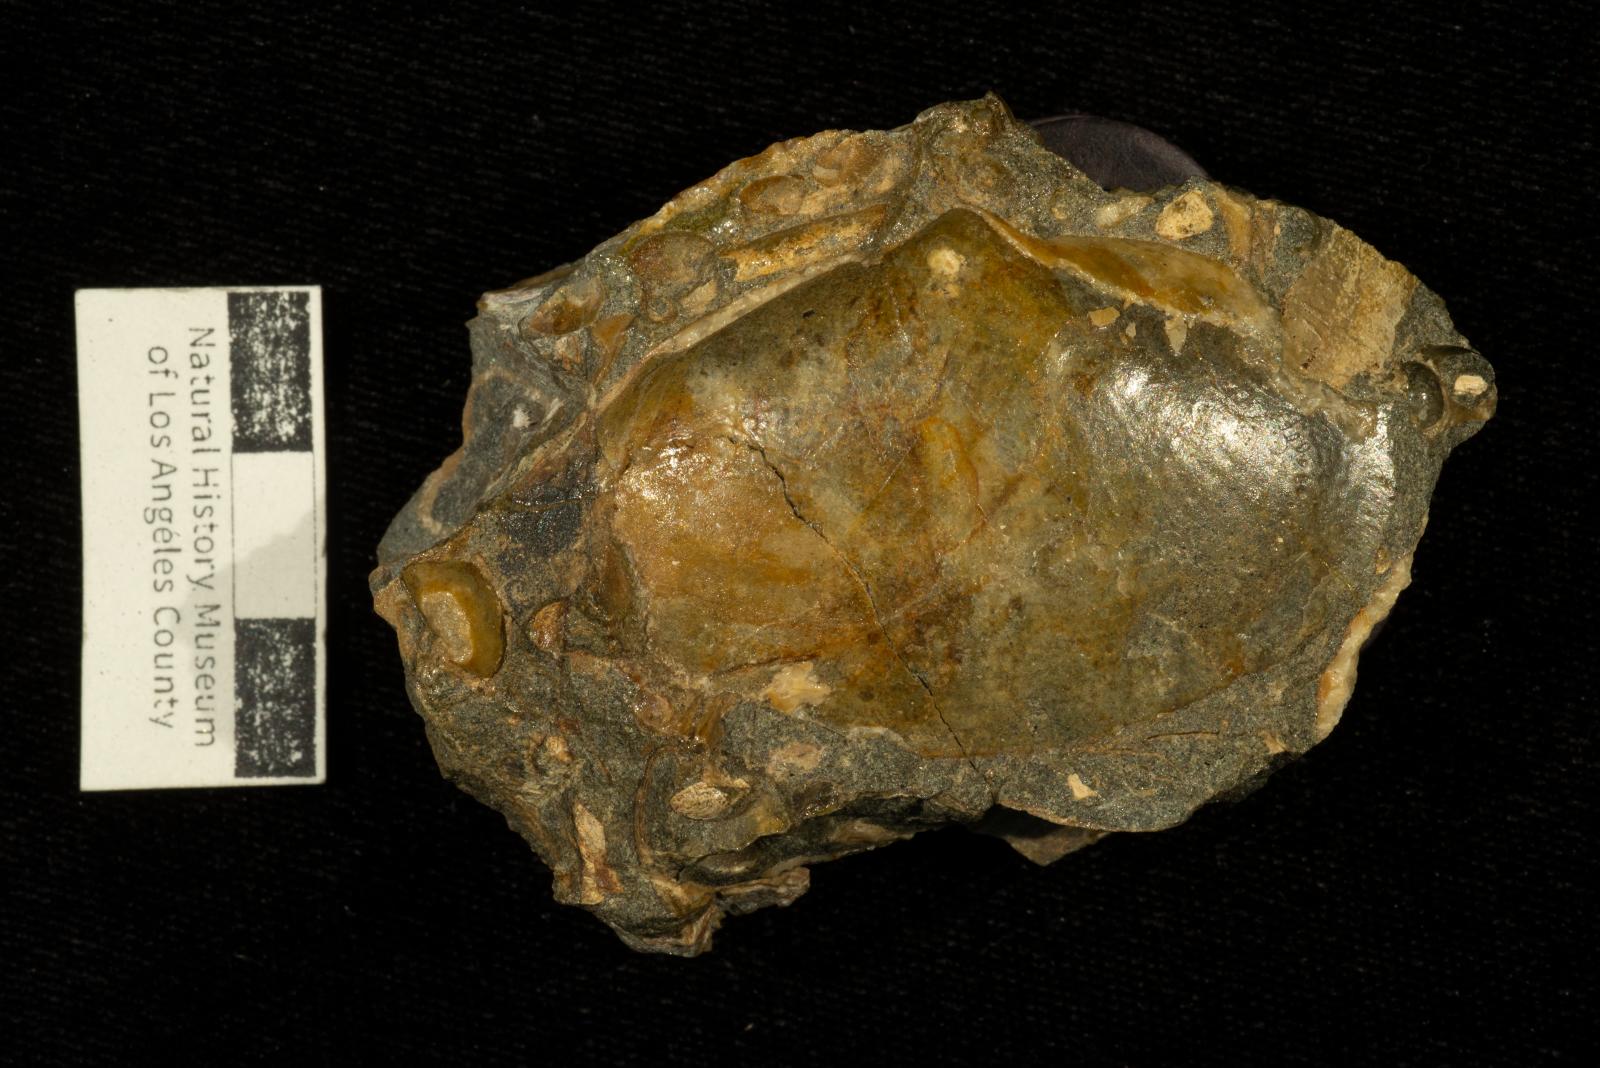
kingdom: Animalia
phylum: Mollusca
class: Bivalvia
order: Venerida
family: Mactridae
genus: Willimactra
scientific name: Willimactra popenoei
